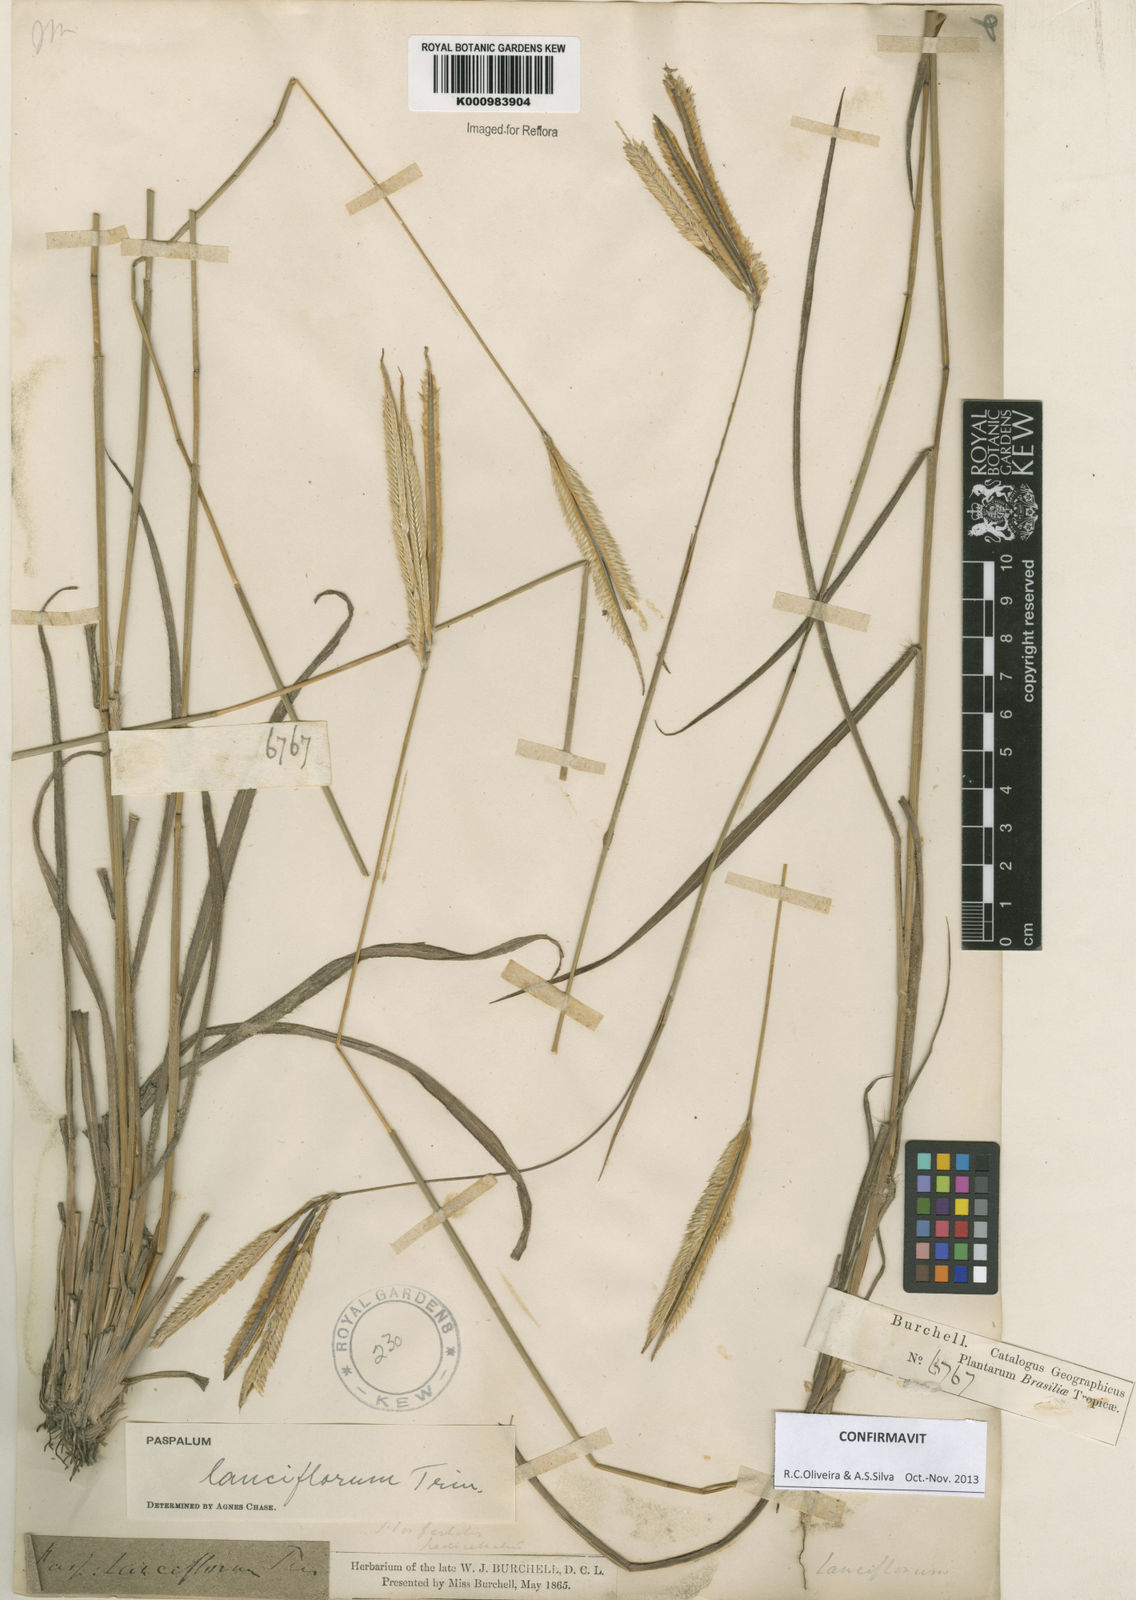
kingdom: Plantae
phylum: Tracheophyta
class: Liliopsida
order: Poales
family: Poaceae
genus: Paspalum
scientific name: Paspalum
